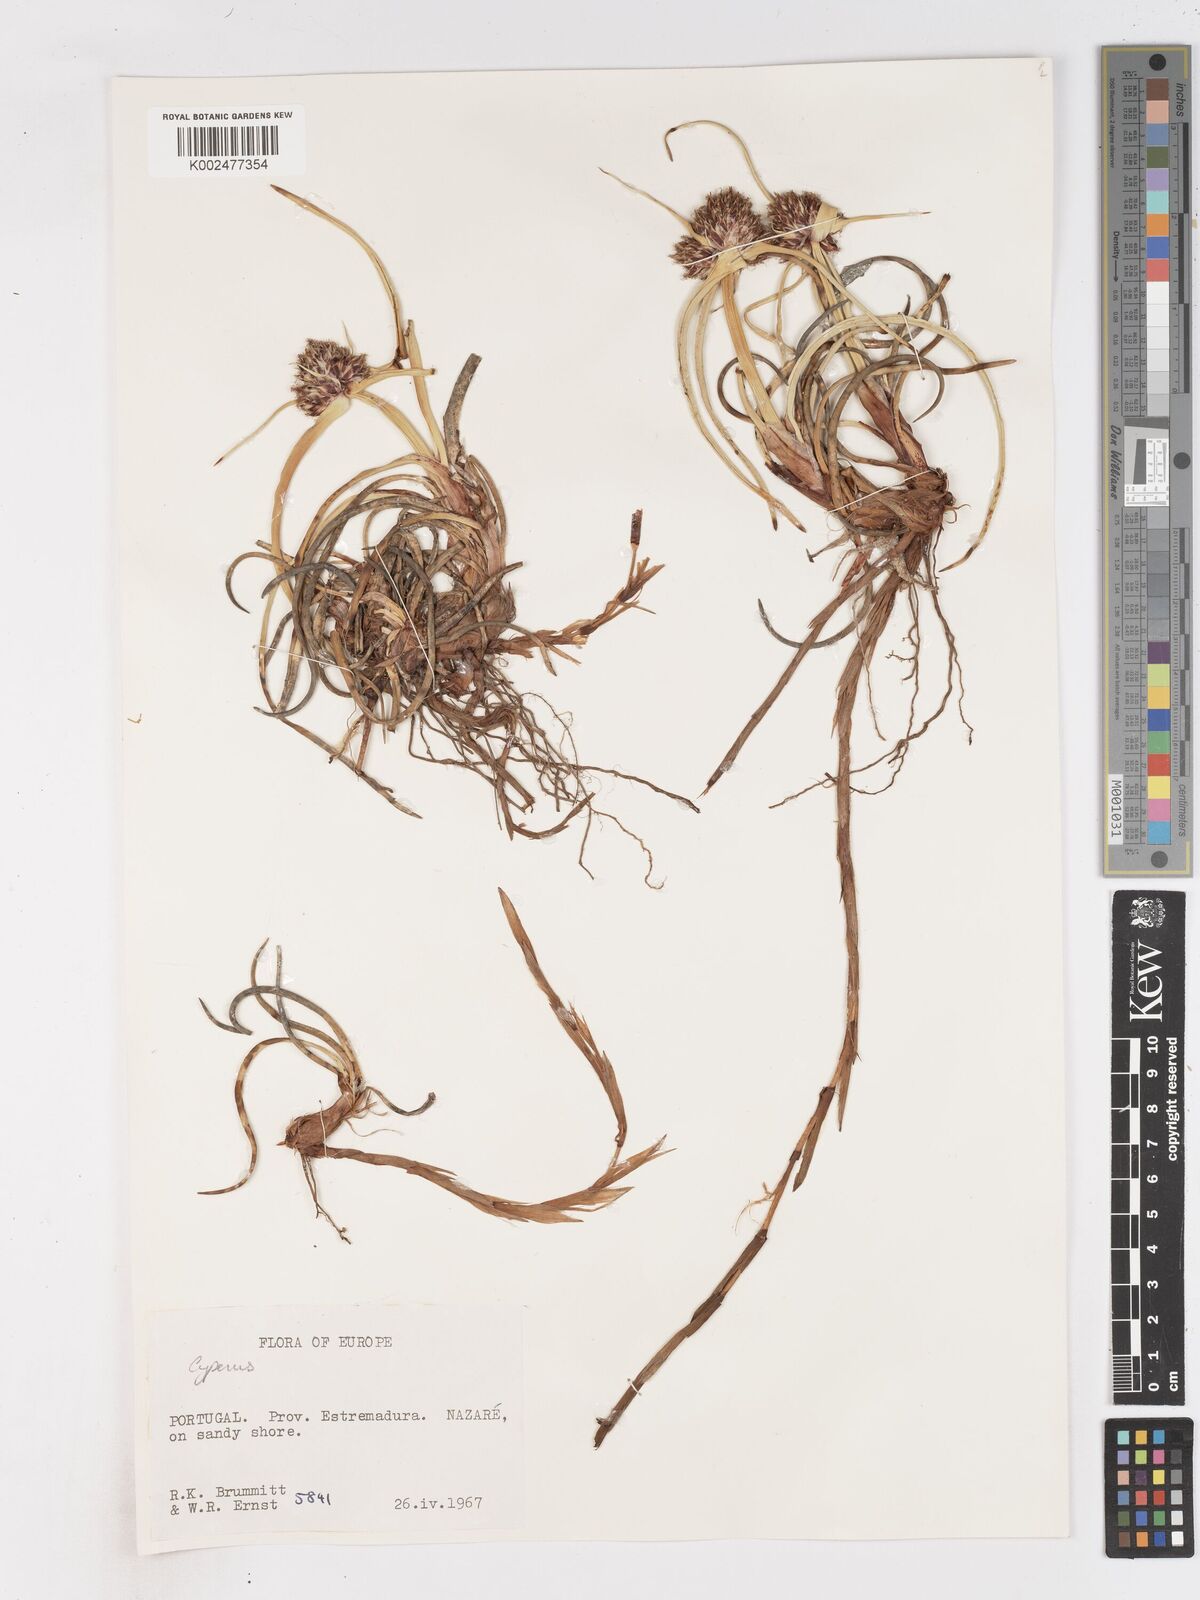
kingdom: Plantae
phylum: Tracheophyta
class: Liliopsida
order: Poales
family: Cyperaceae
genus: Cyperus
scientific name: Cyperus capitatus
